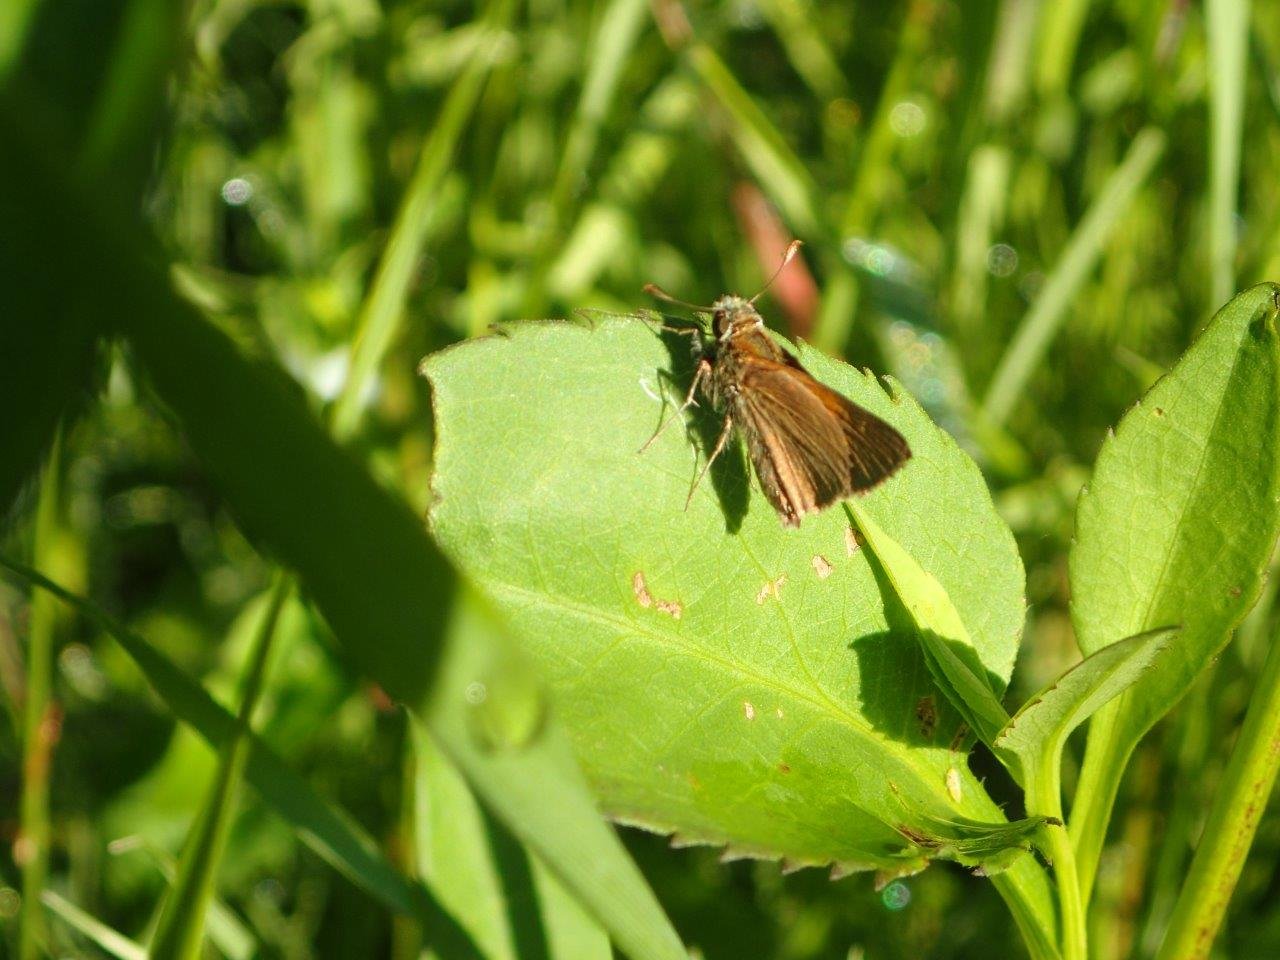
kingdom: Animalia
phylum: Arthropoda
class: Insecta
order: Lepidoptera
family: Hesperiidae
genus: Polites
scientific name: Polites themistocles
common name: Tawny-edged Skipper
